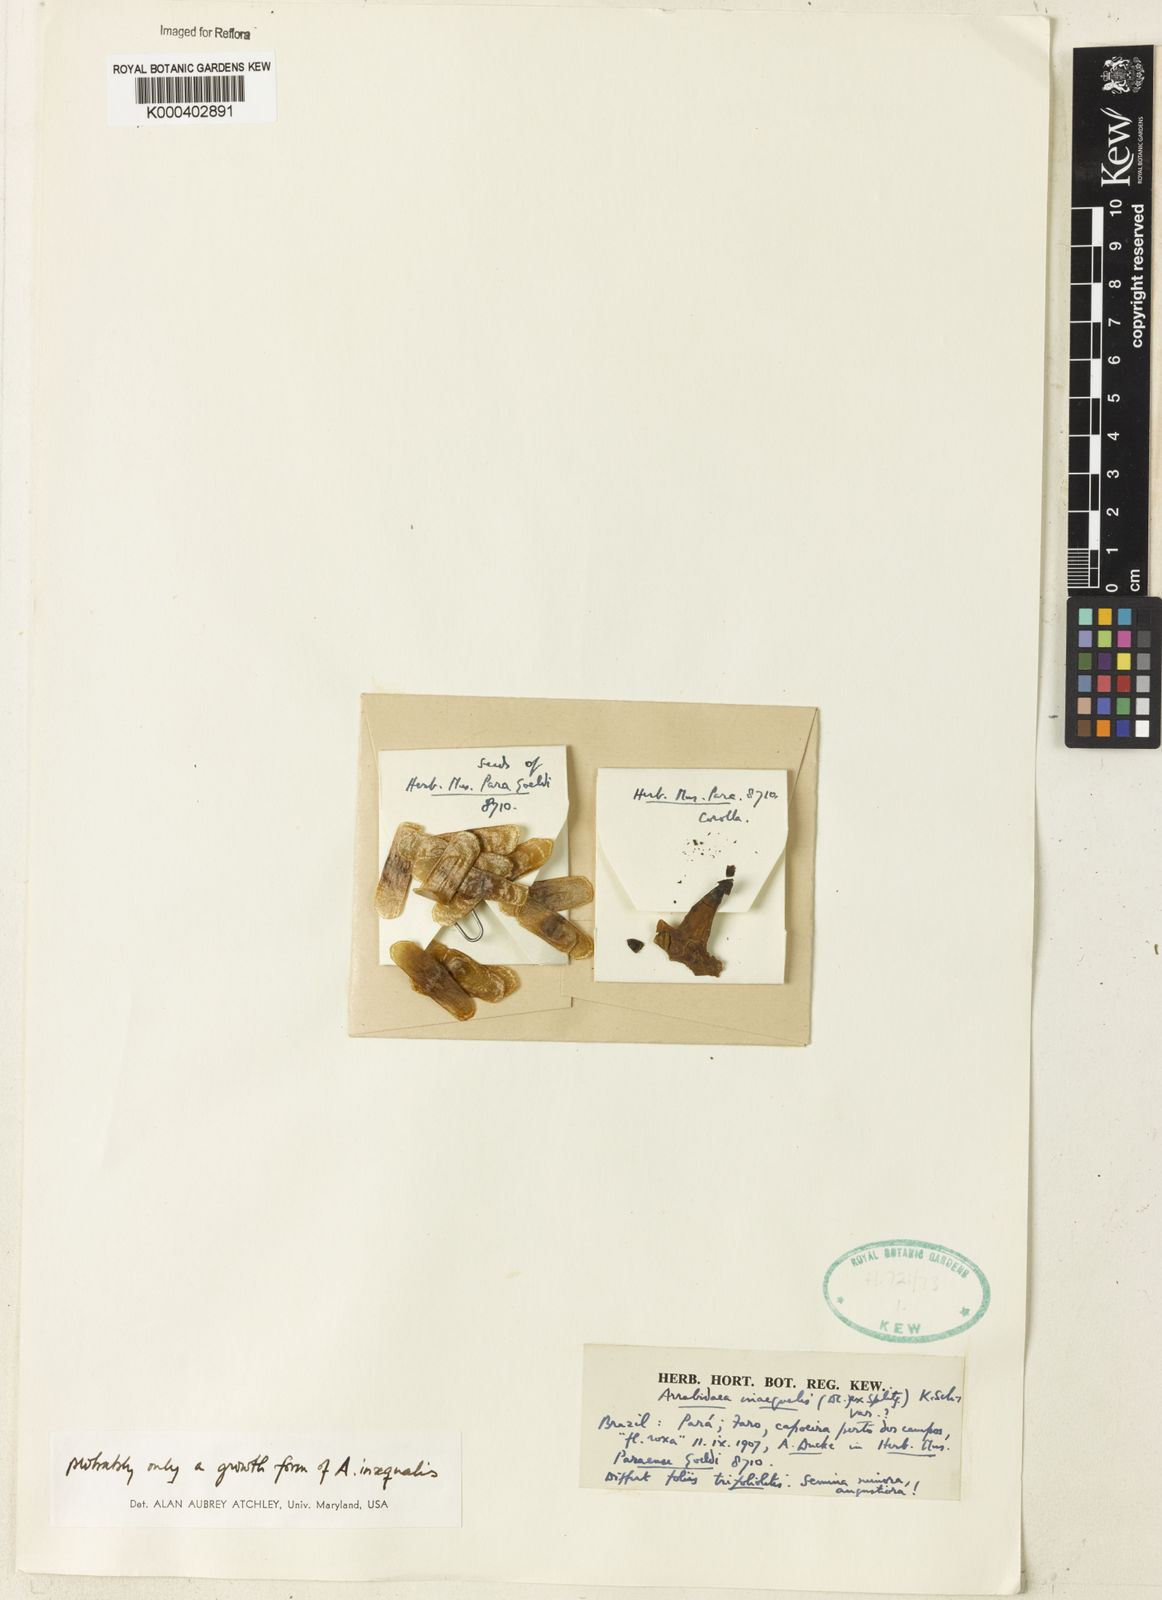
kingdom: Plantae
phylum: Tracheophyta
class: Magnoliopsida
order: Rosales
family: Rhamnaceae
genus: Arrabidaea
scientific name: Arrabidaea
